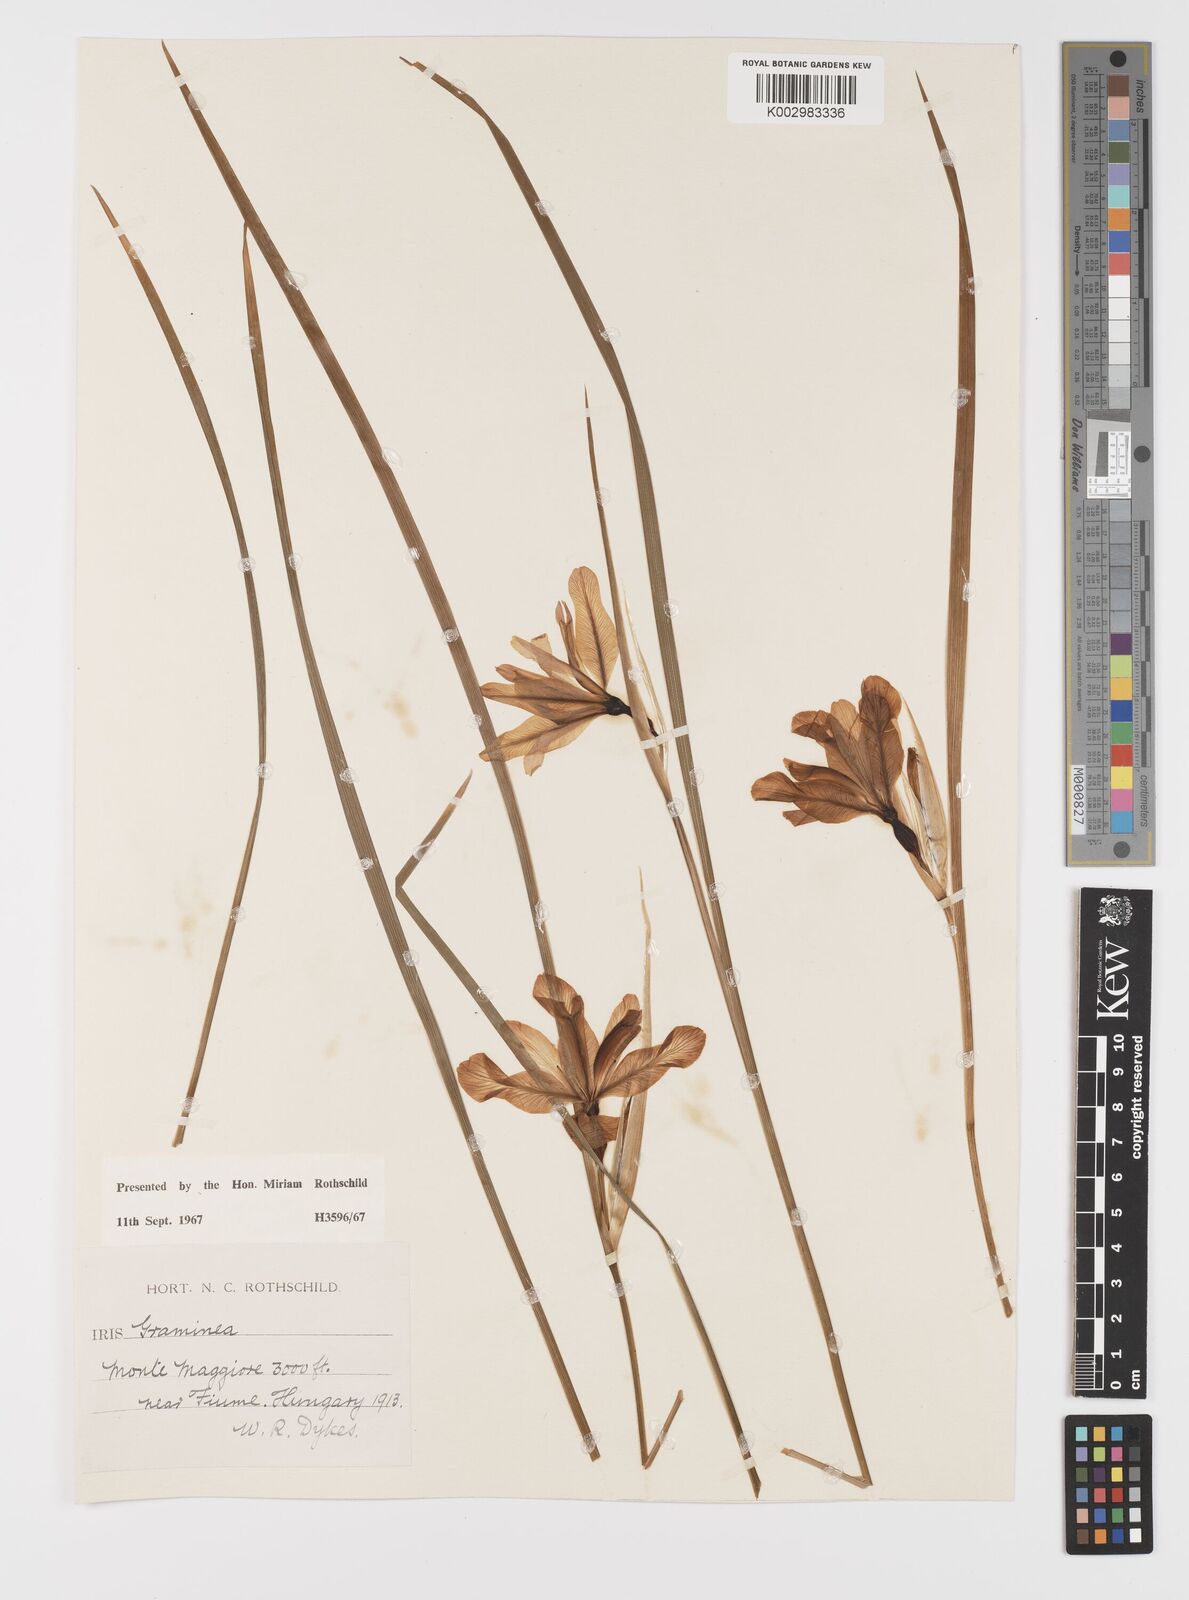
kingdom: Plantae
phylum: Tracheophyta
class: Liliopsida
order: Asparagales
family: Iridaceae
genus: Iris
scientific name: Iris graminea
